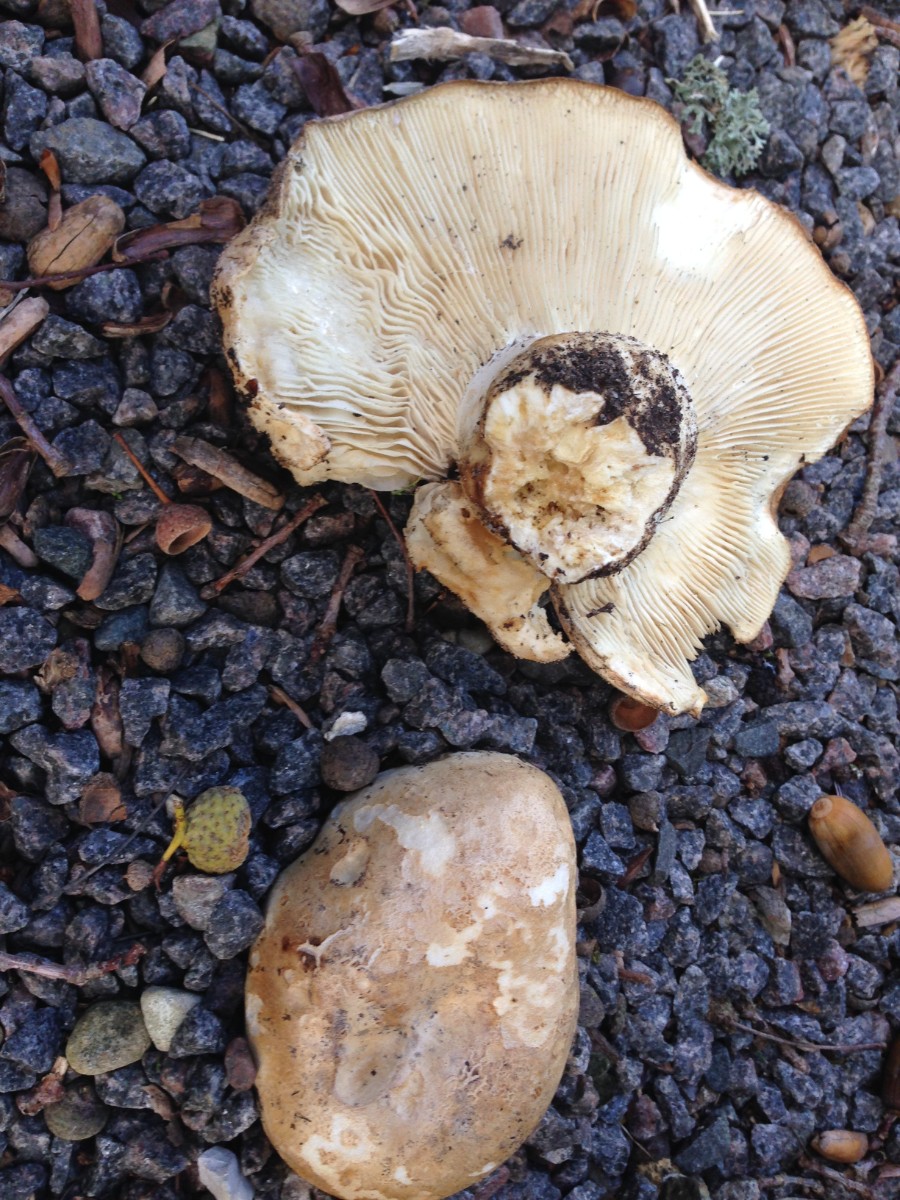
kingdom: Fungi
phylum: Basidiomycota
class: Agaricomycetes
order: Russulales
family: Russulaceae
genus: Russula
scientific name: Russula delica
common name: almindelig tragt-skørhat
